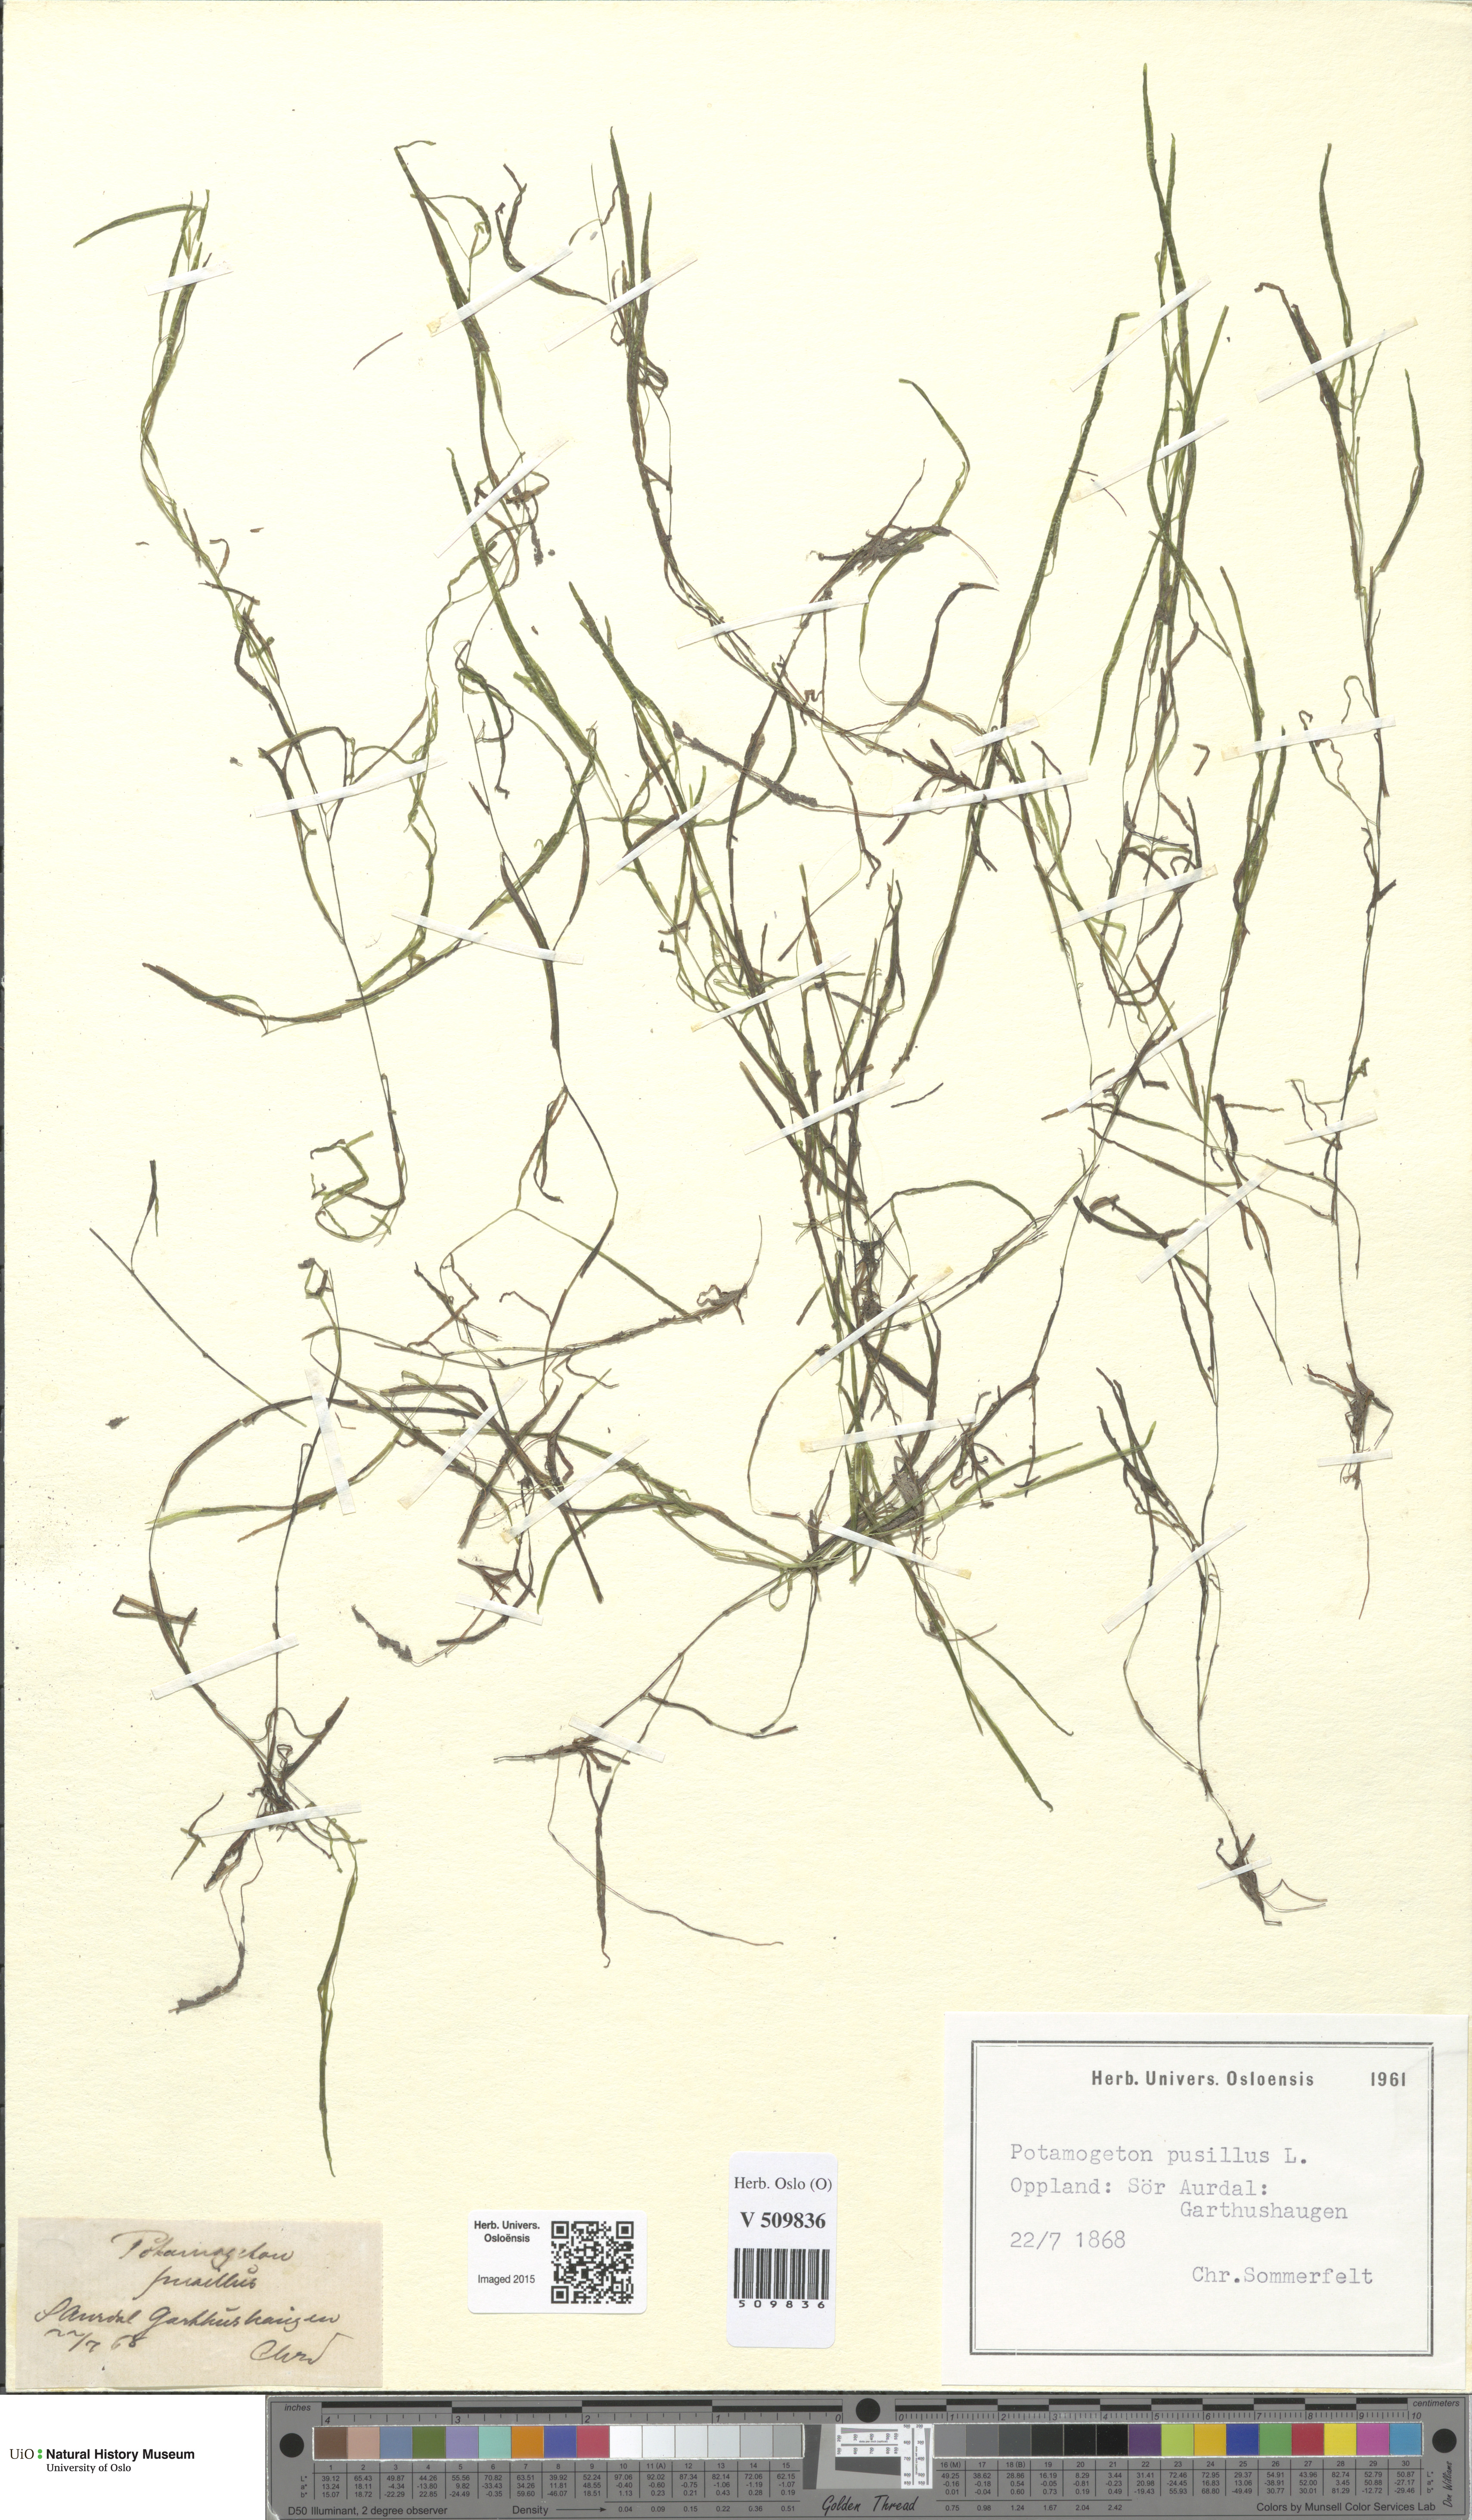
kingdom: Plantae
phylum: Tracheophyta
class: Liliopsida
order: Alismatales
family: Potamogetonaceae
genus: Potamogeton
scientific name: Potamogeton berchtoldii
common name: Small pondweed
